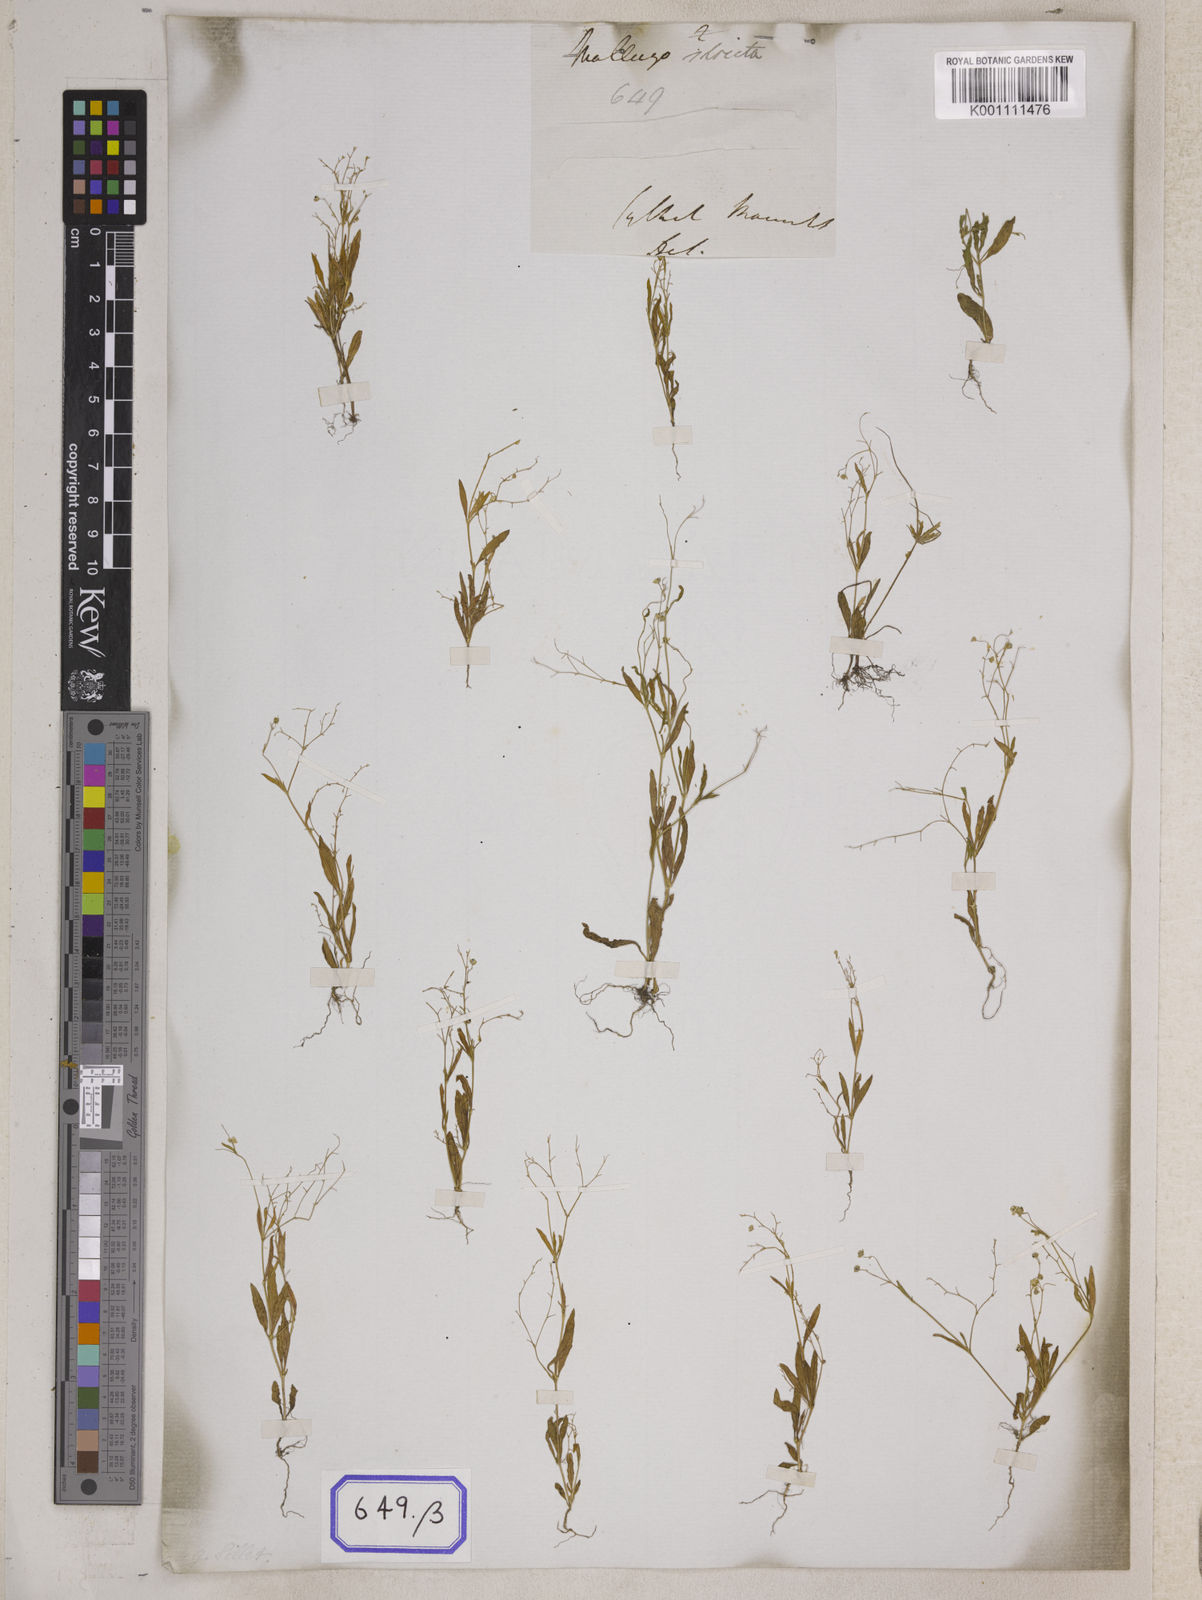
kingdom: Plantae
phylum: Tracheophyta
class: Magnoliopsida
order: Caryophyllales
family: Molluginaceae
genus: Mollugo
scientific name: Mollugo
